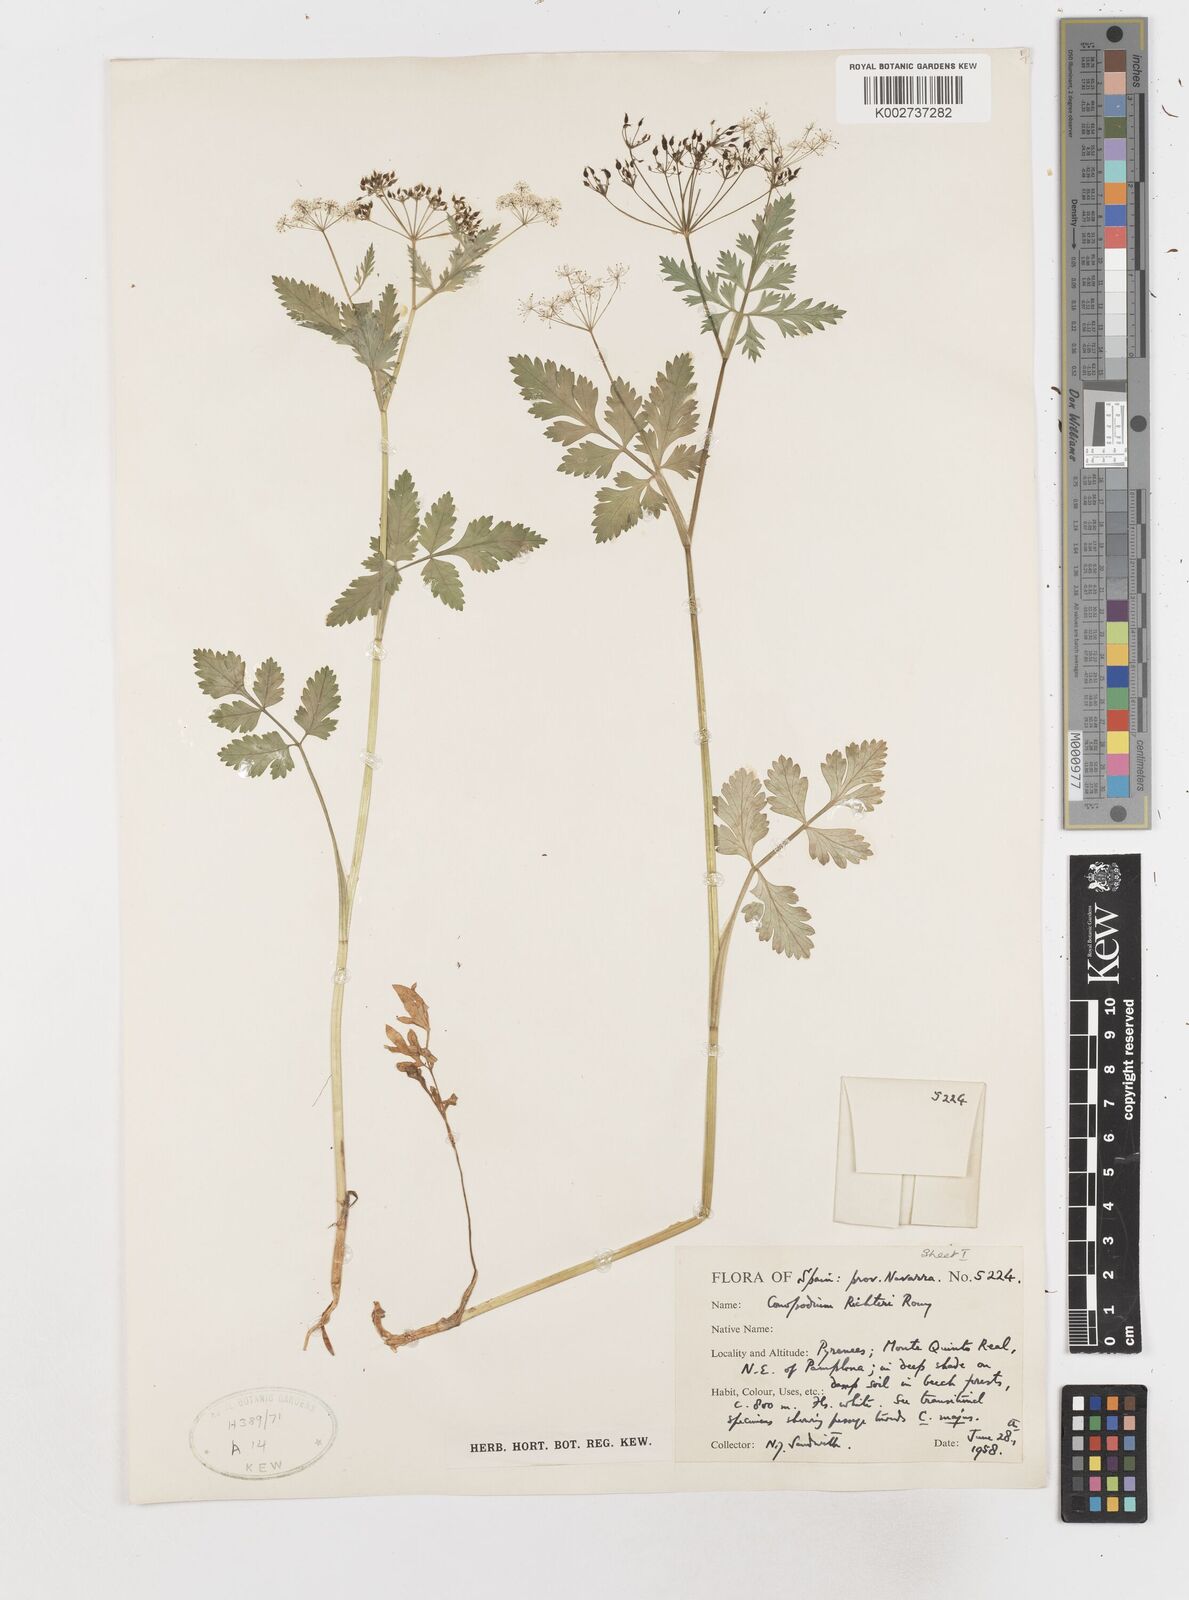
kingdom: Plantae
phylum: Tracheophyta
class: Magnoliopsida
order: Apiales
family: Apiaceae
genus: Conopodium
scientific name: Conopodium pyrenaeum
